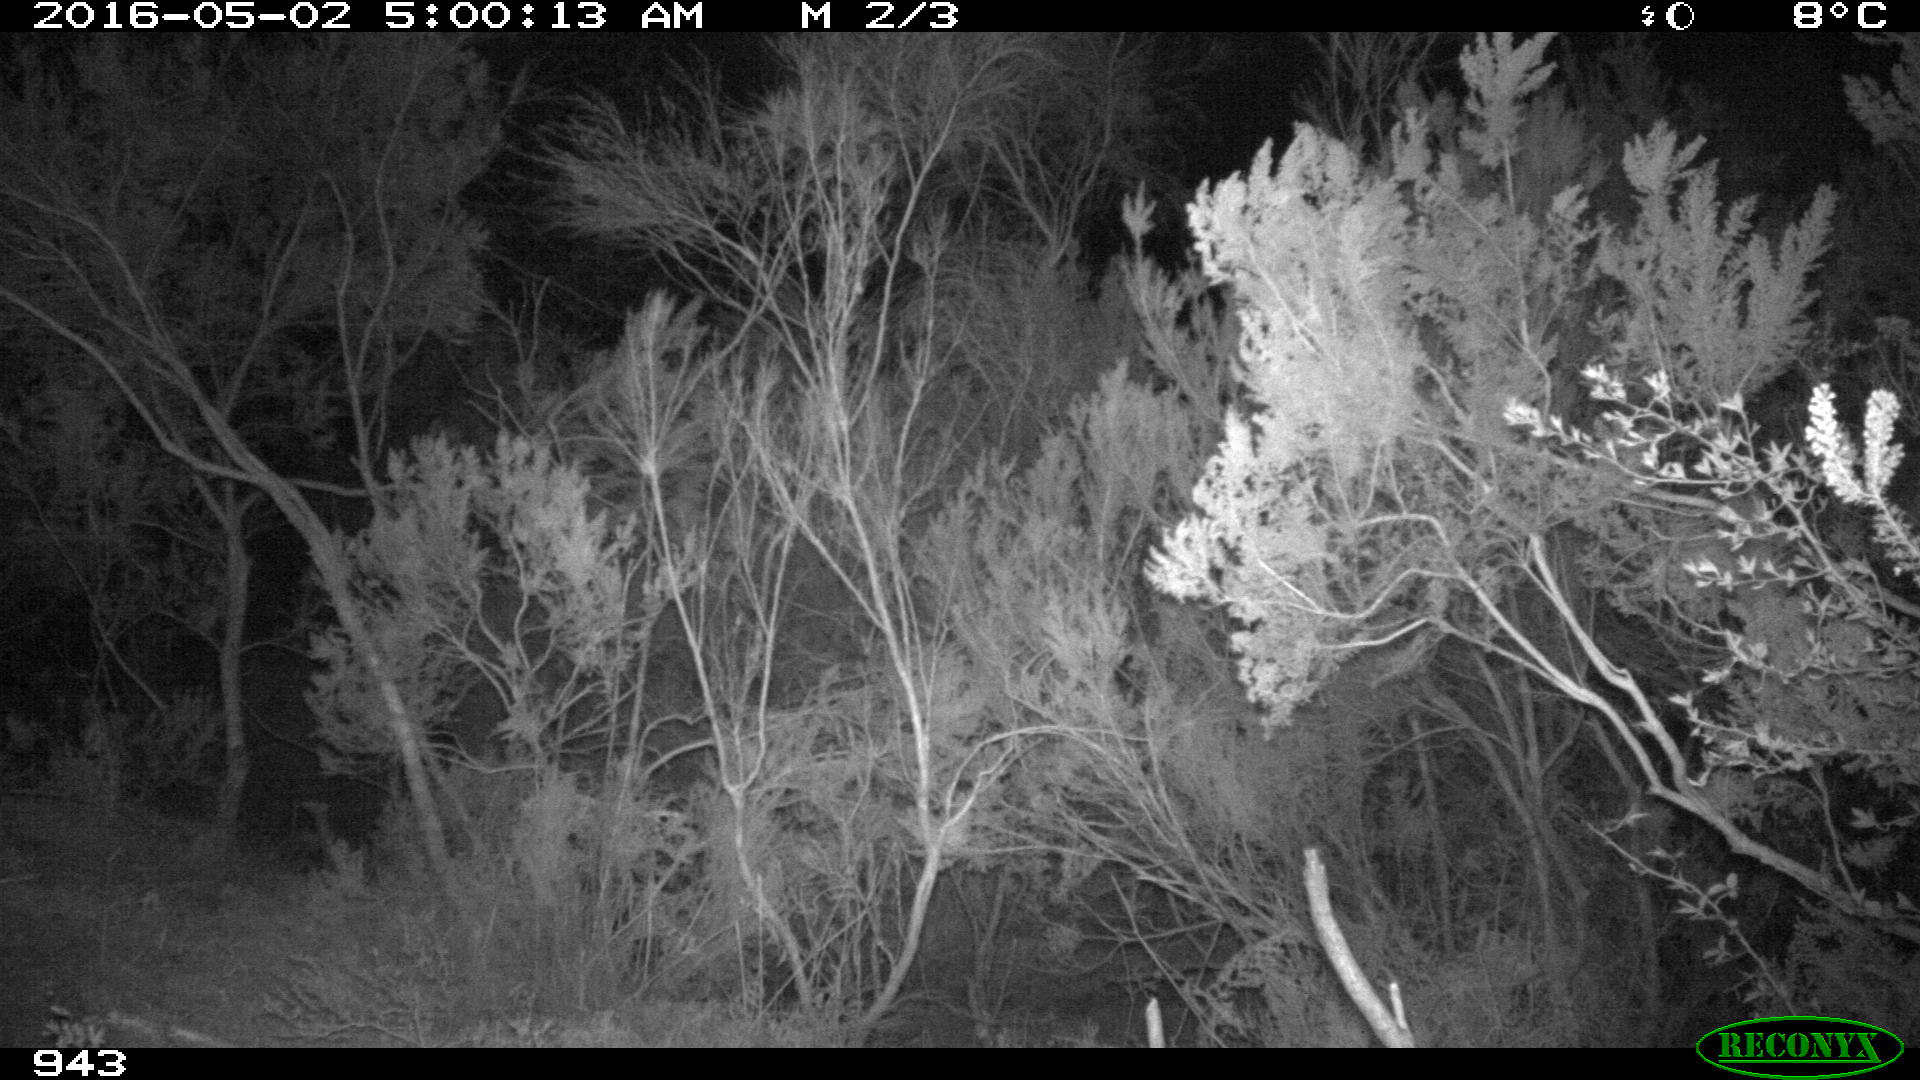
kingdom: Animalia
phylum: Chordata
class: Mammalia
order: Perissodactyla
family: Equidae
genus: Equus
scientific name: Equus caballus
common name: Horse
